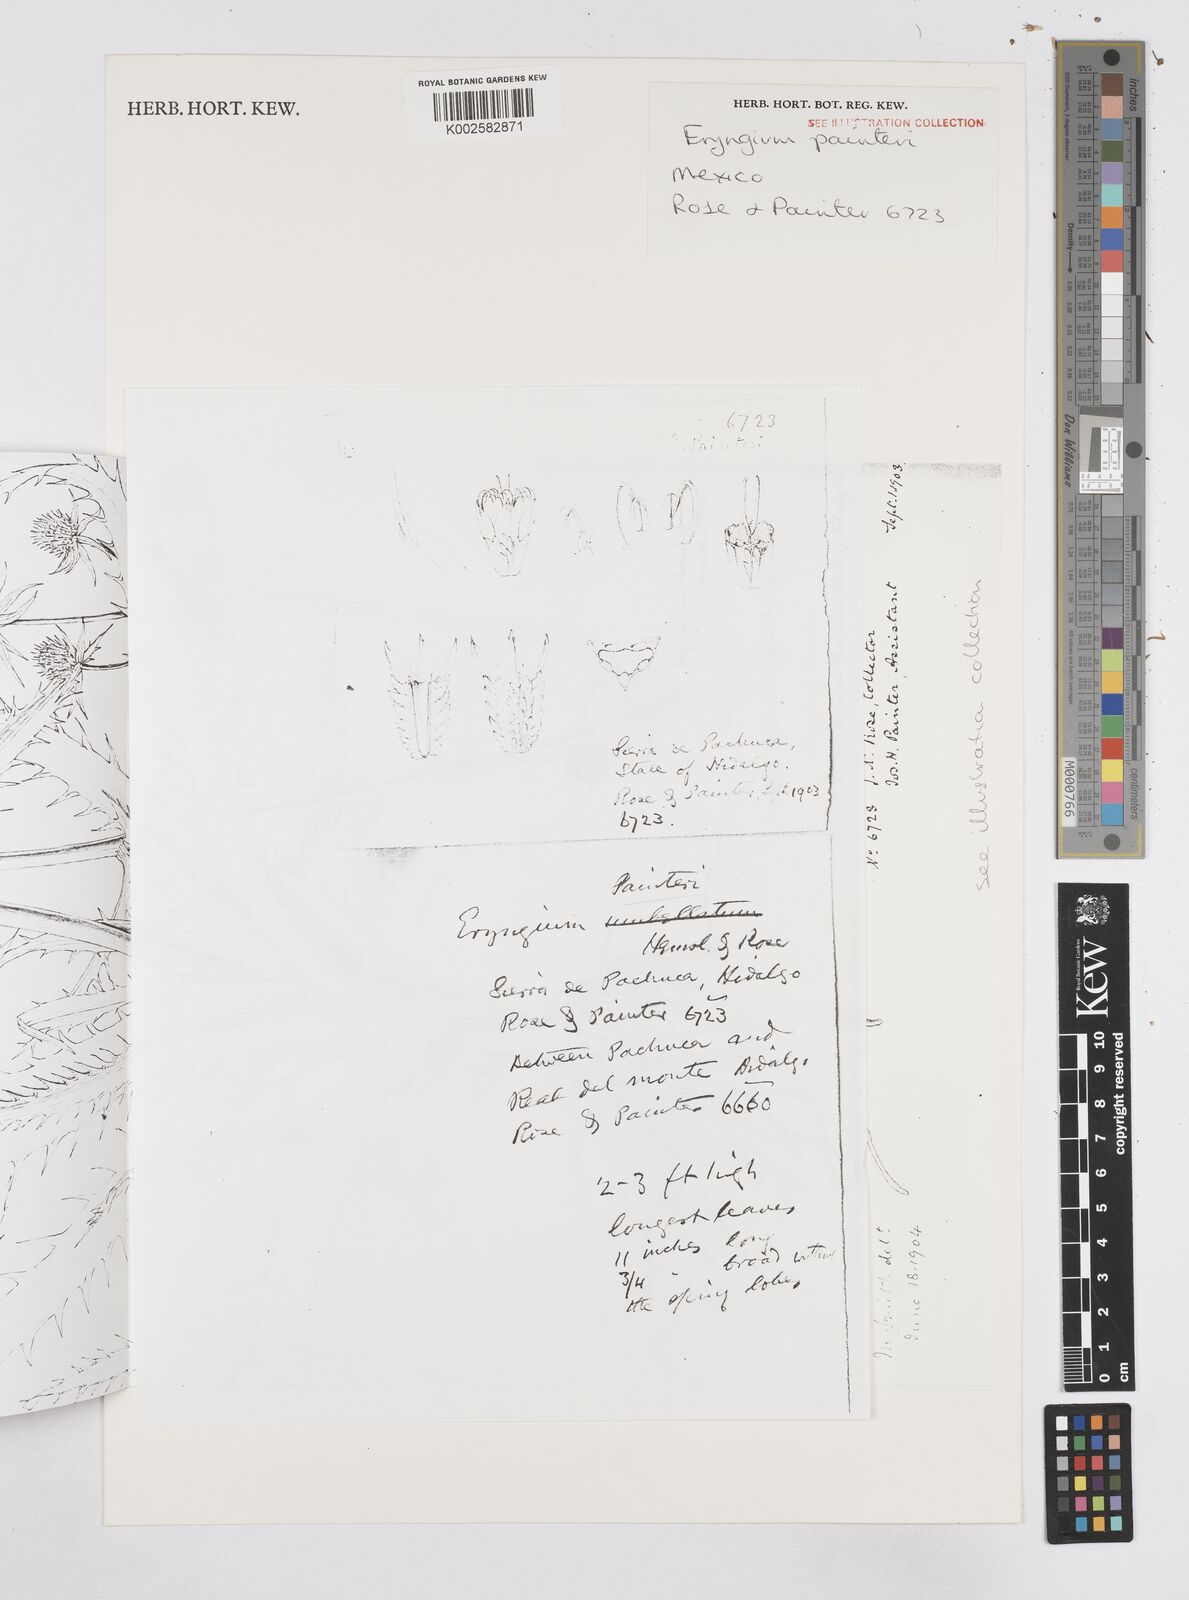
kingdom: Plantae
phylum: Tracheophyta
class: Magnoliopsida
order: Apiales
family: Apiaceae
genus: Eryngium
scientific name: Eryngium humile
